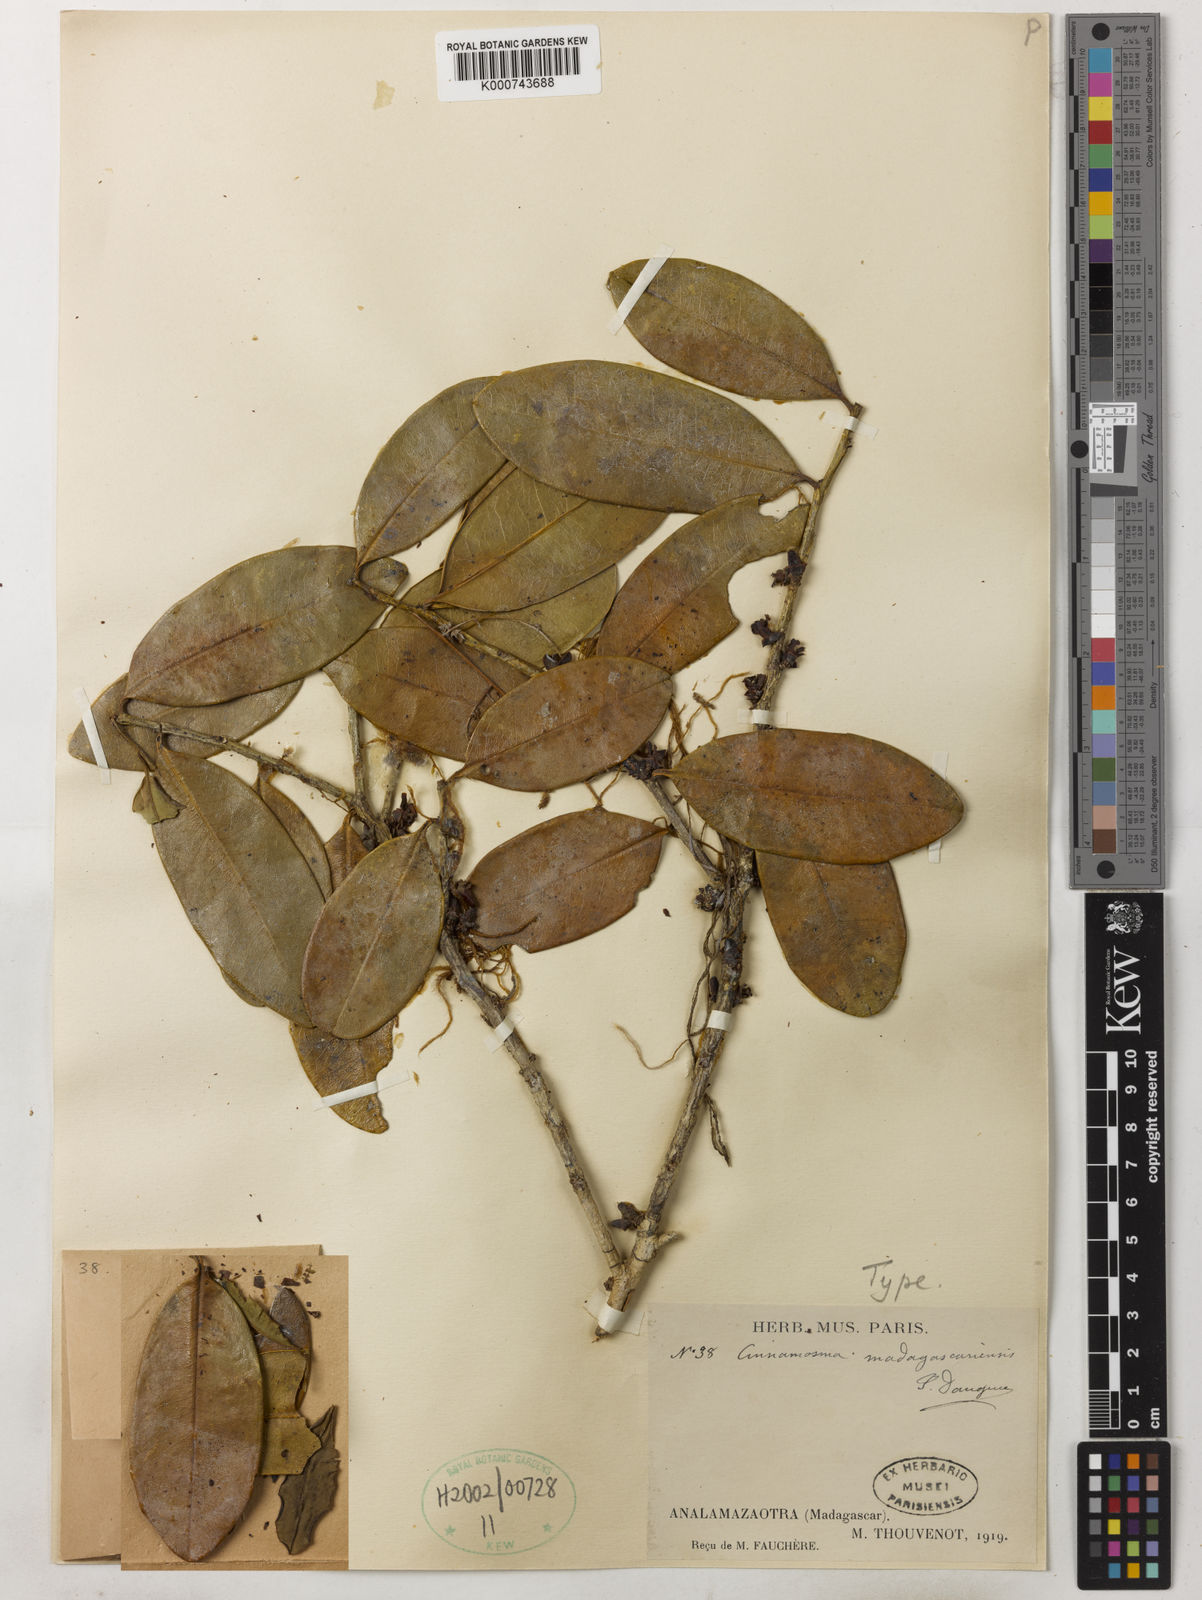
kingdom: Plantae
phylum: Tracheophyta
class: Magnoliopsida
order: Canellales
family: Canellaceae
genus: Cinnamosma
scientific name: Cinnamosma madagascariensis
